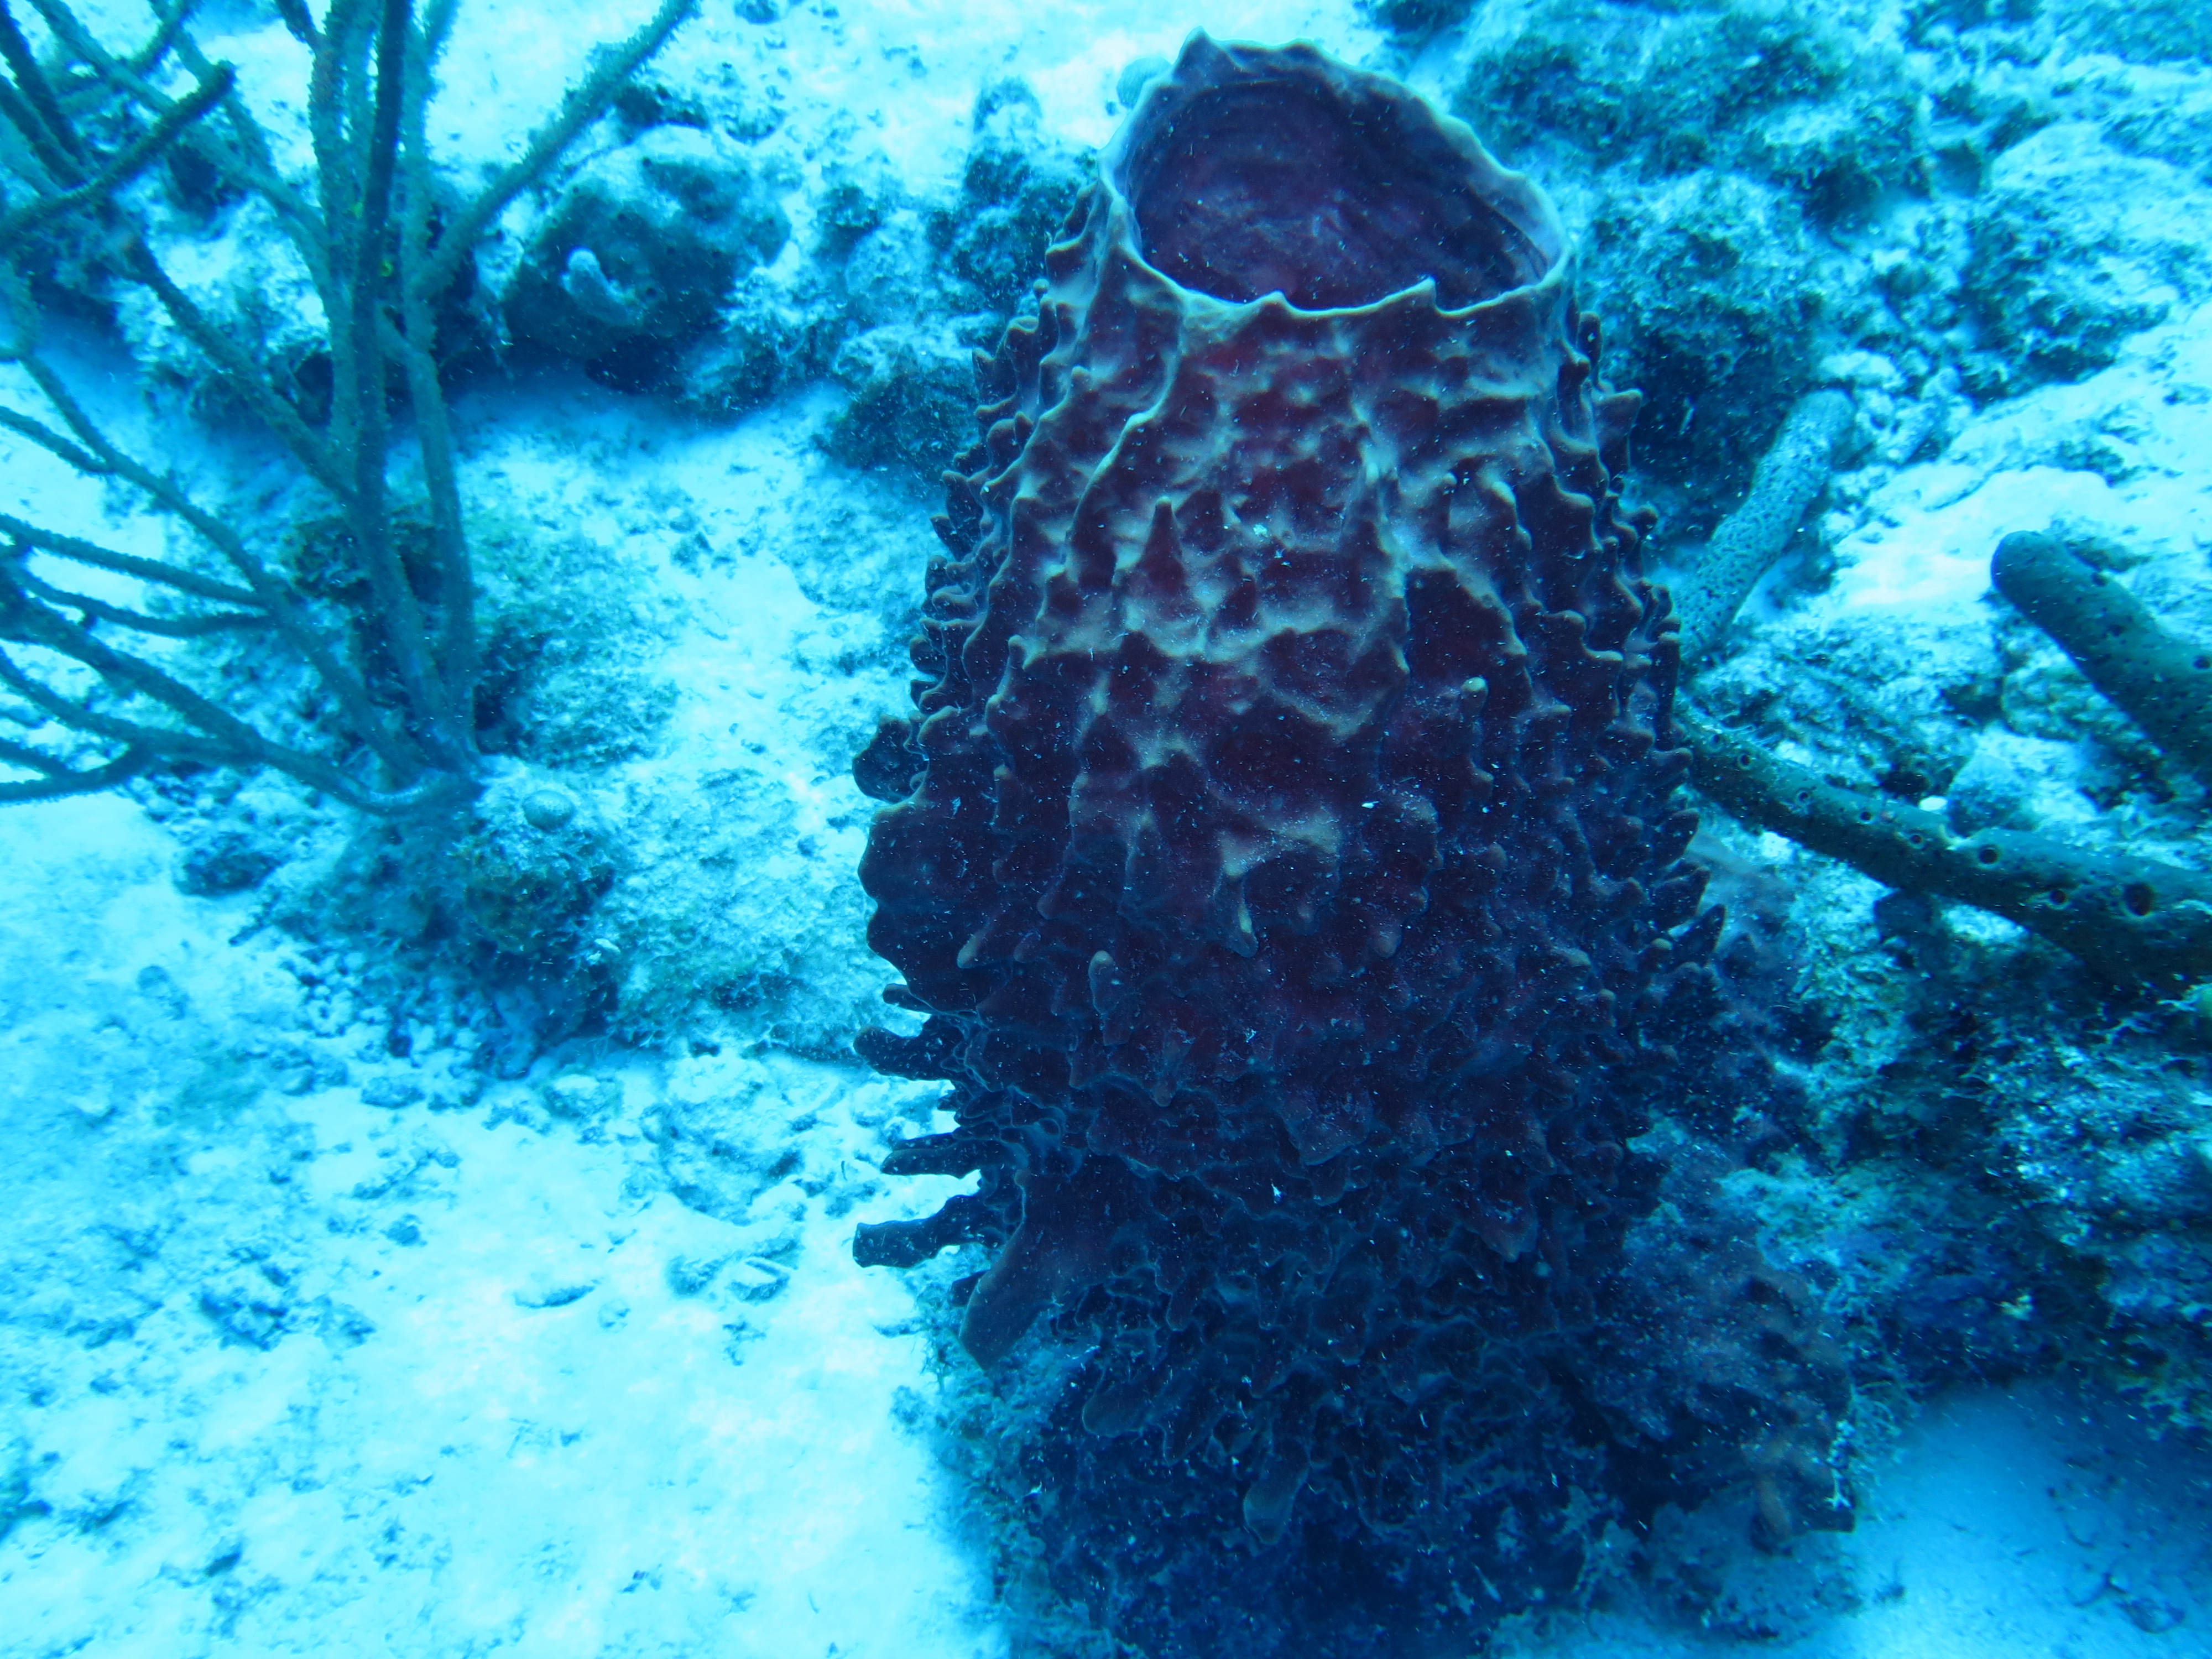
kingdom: Animalia
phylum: Porifera
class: Demospongiae
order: Haplosclerida
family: Petrosiidae
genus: Xestospongia
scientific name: Xestospongia muta
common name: Giant barrel sponge
